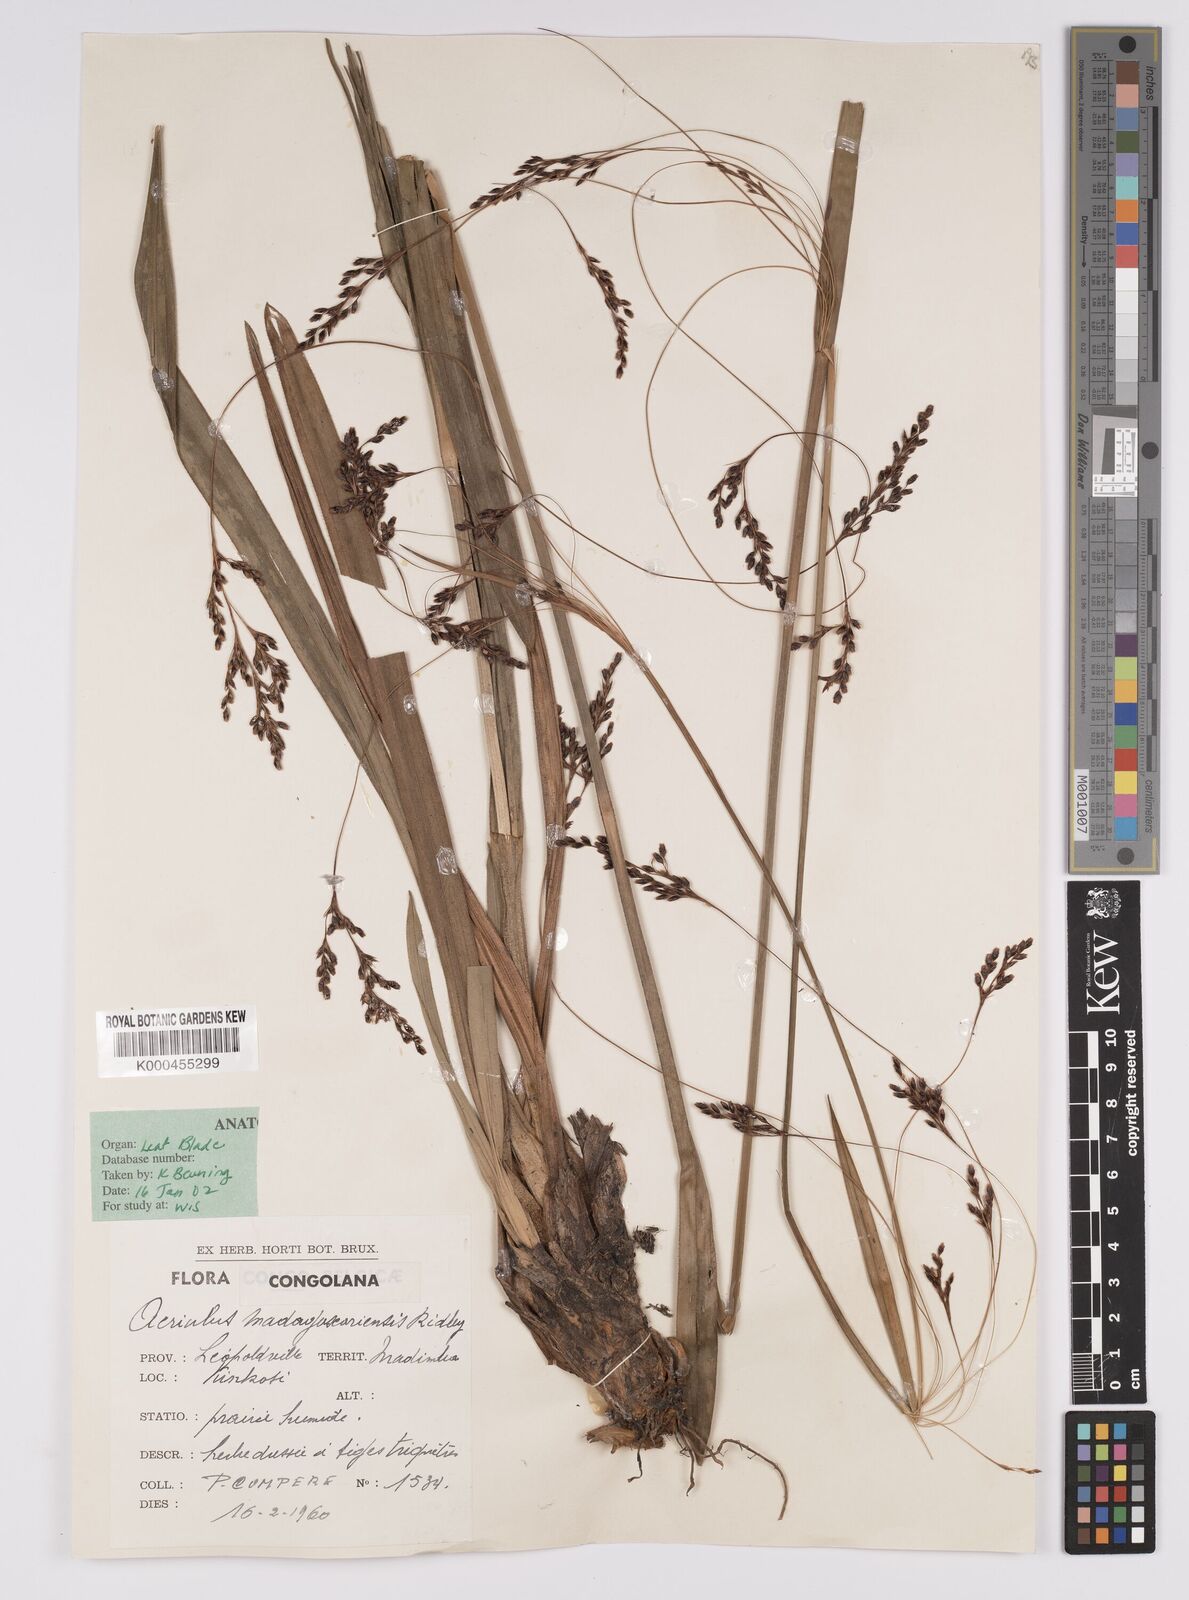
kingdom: Plantae
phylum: Tracheophyta
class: Liliopsida
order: Poales
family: Cyperaceae
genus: Scleria
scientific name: Scleria greigiifolia
